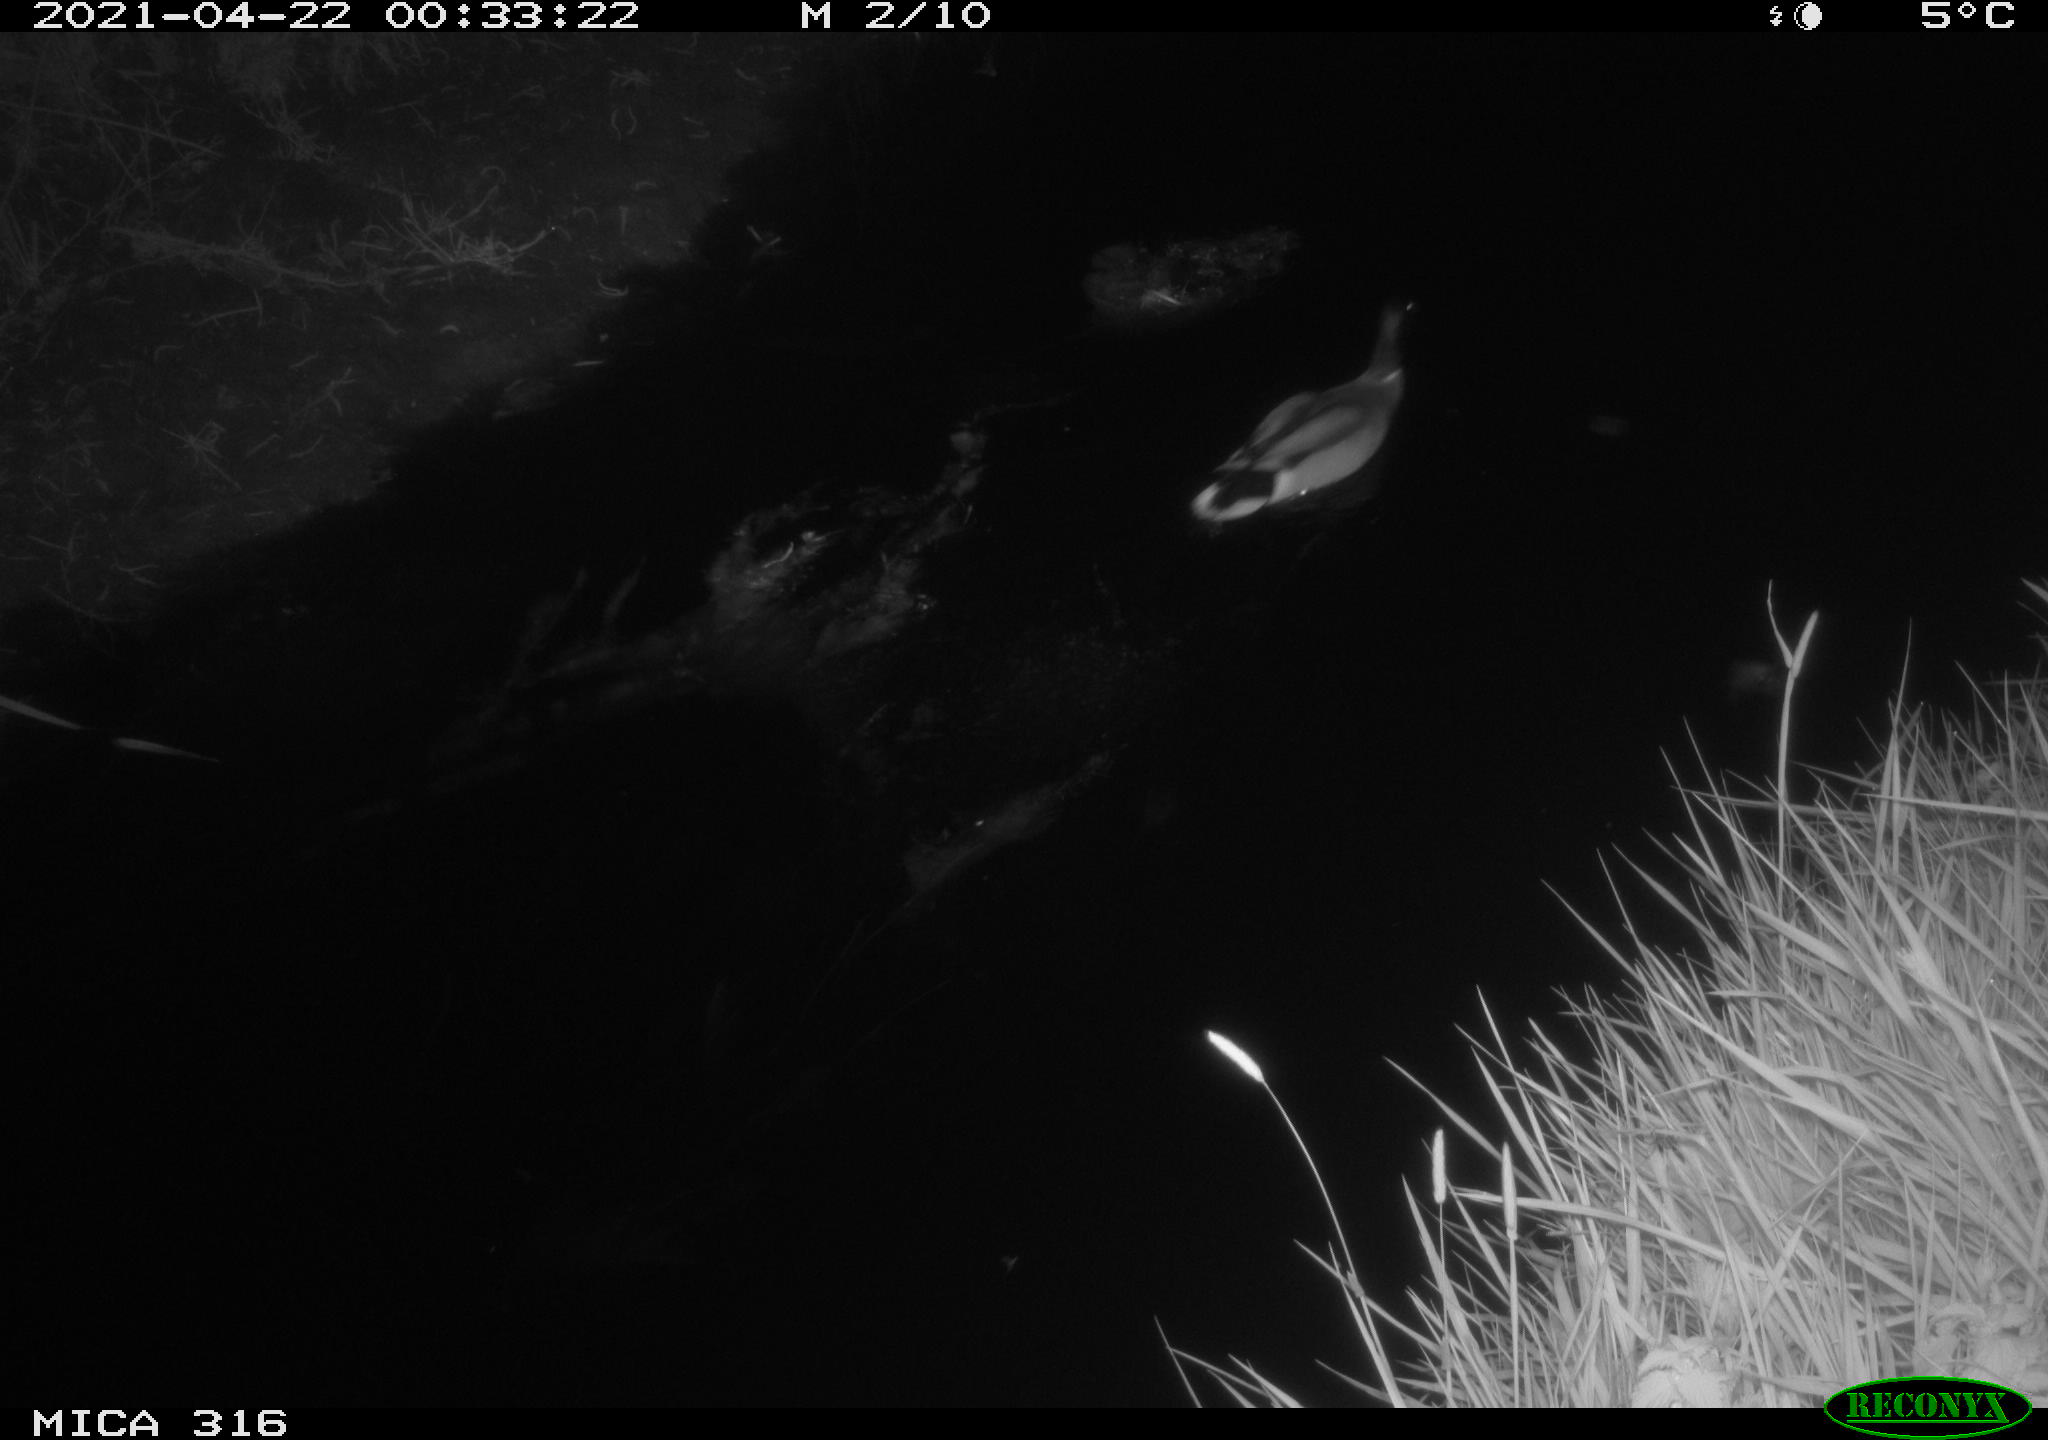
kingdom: Animalia
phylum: Chordata
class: Aves
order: Anseriformes
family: Anatidae
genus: Anas
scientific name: Anas platyrhynchos
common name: Mallard
